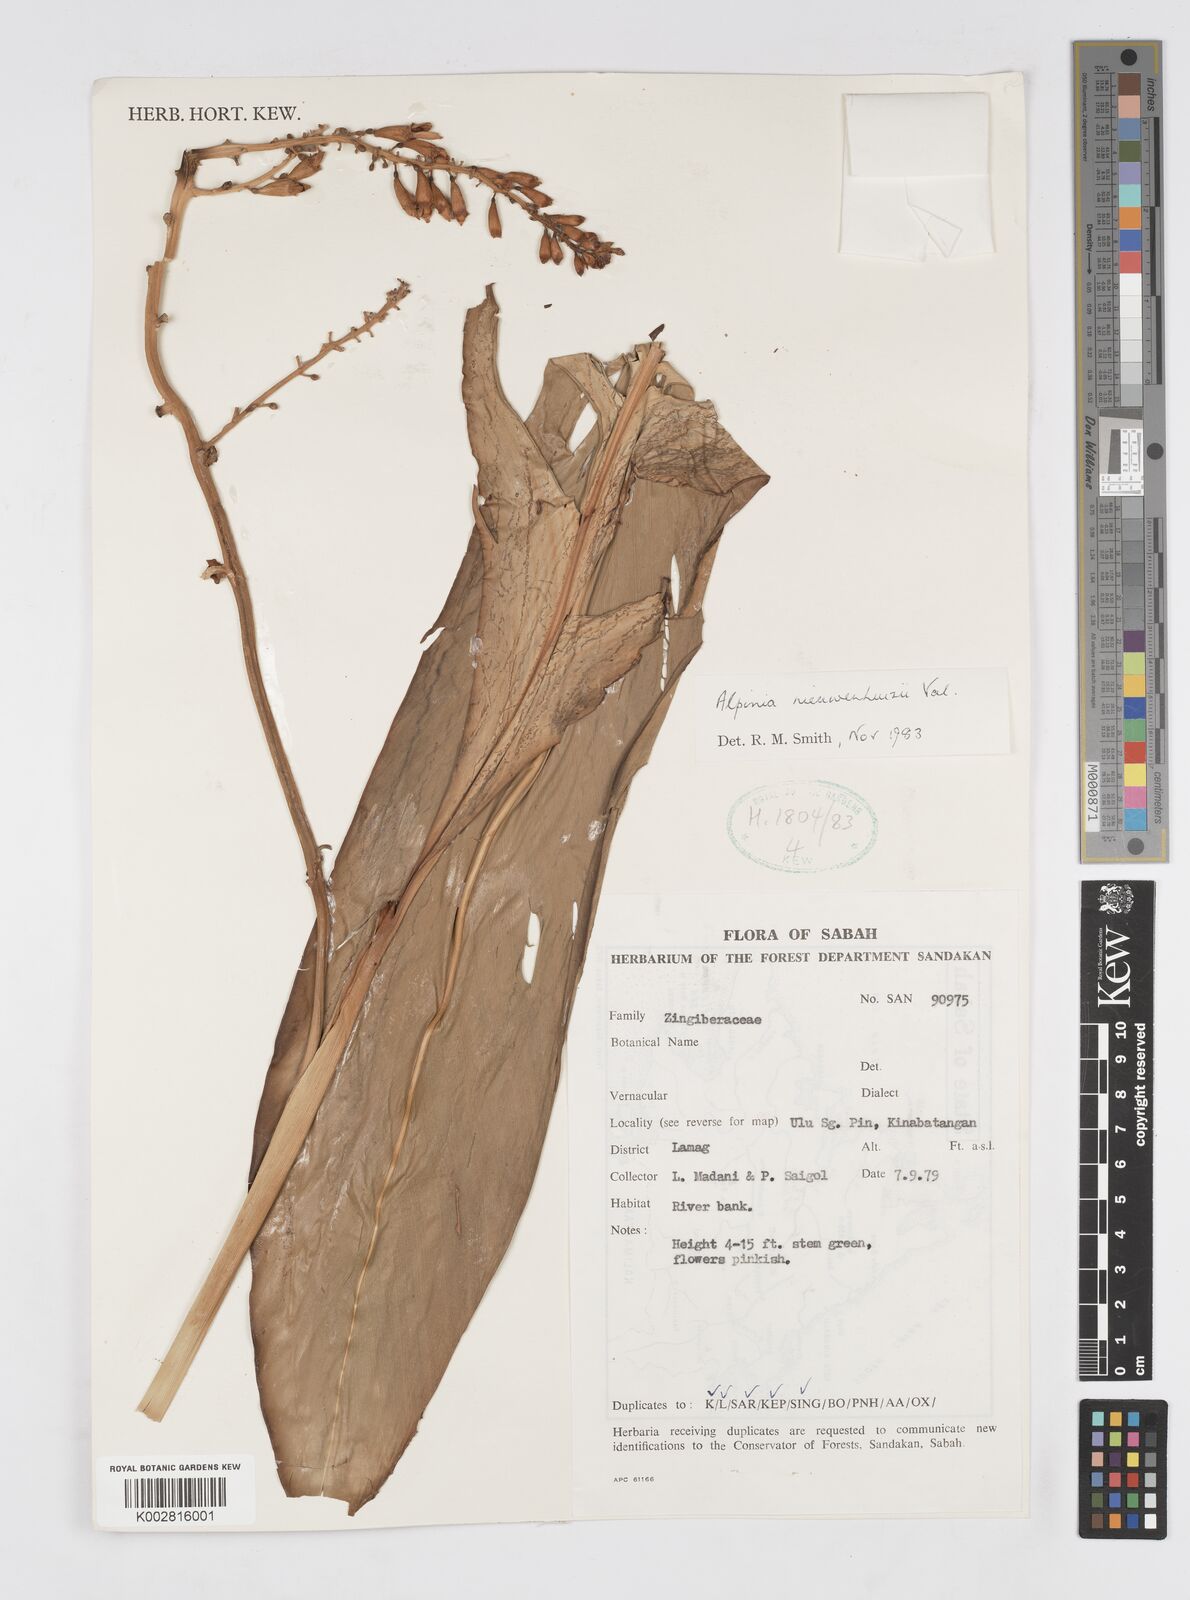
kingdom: Plantae
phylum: Tracheophyta
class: Liliopsida
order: Zingiberales
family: Zingiberaceae
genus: Alpinia
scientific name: Alpinia nieuwenhuizii
